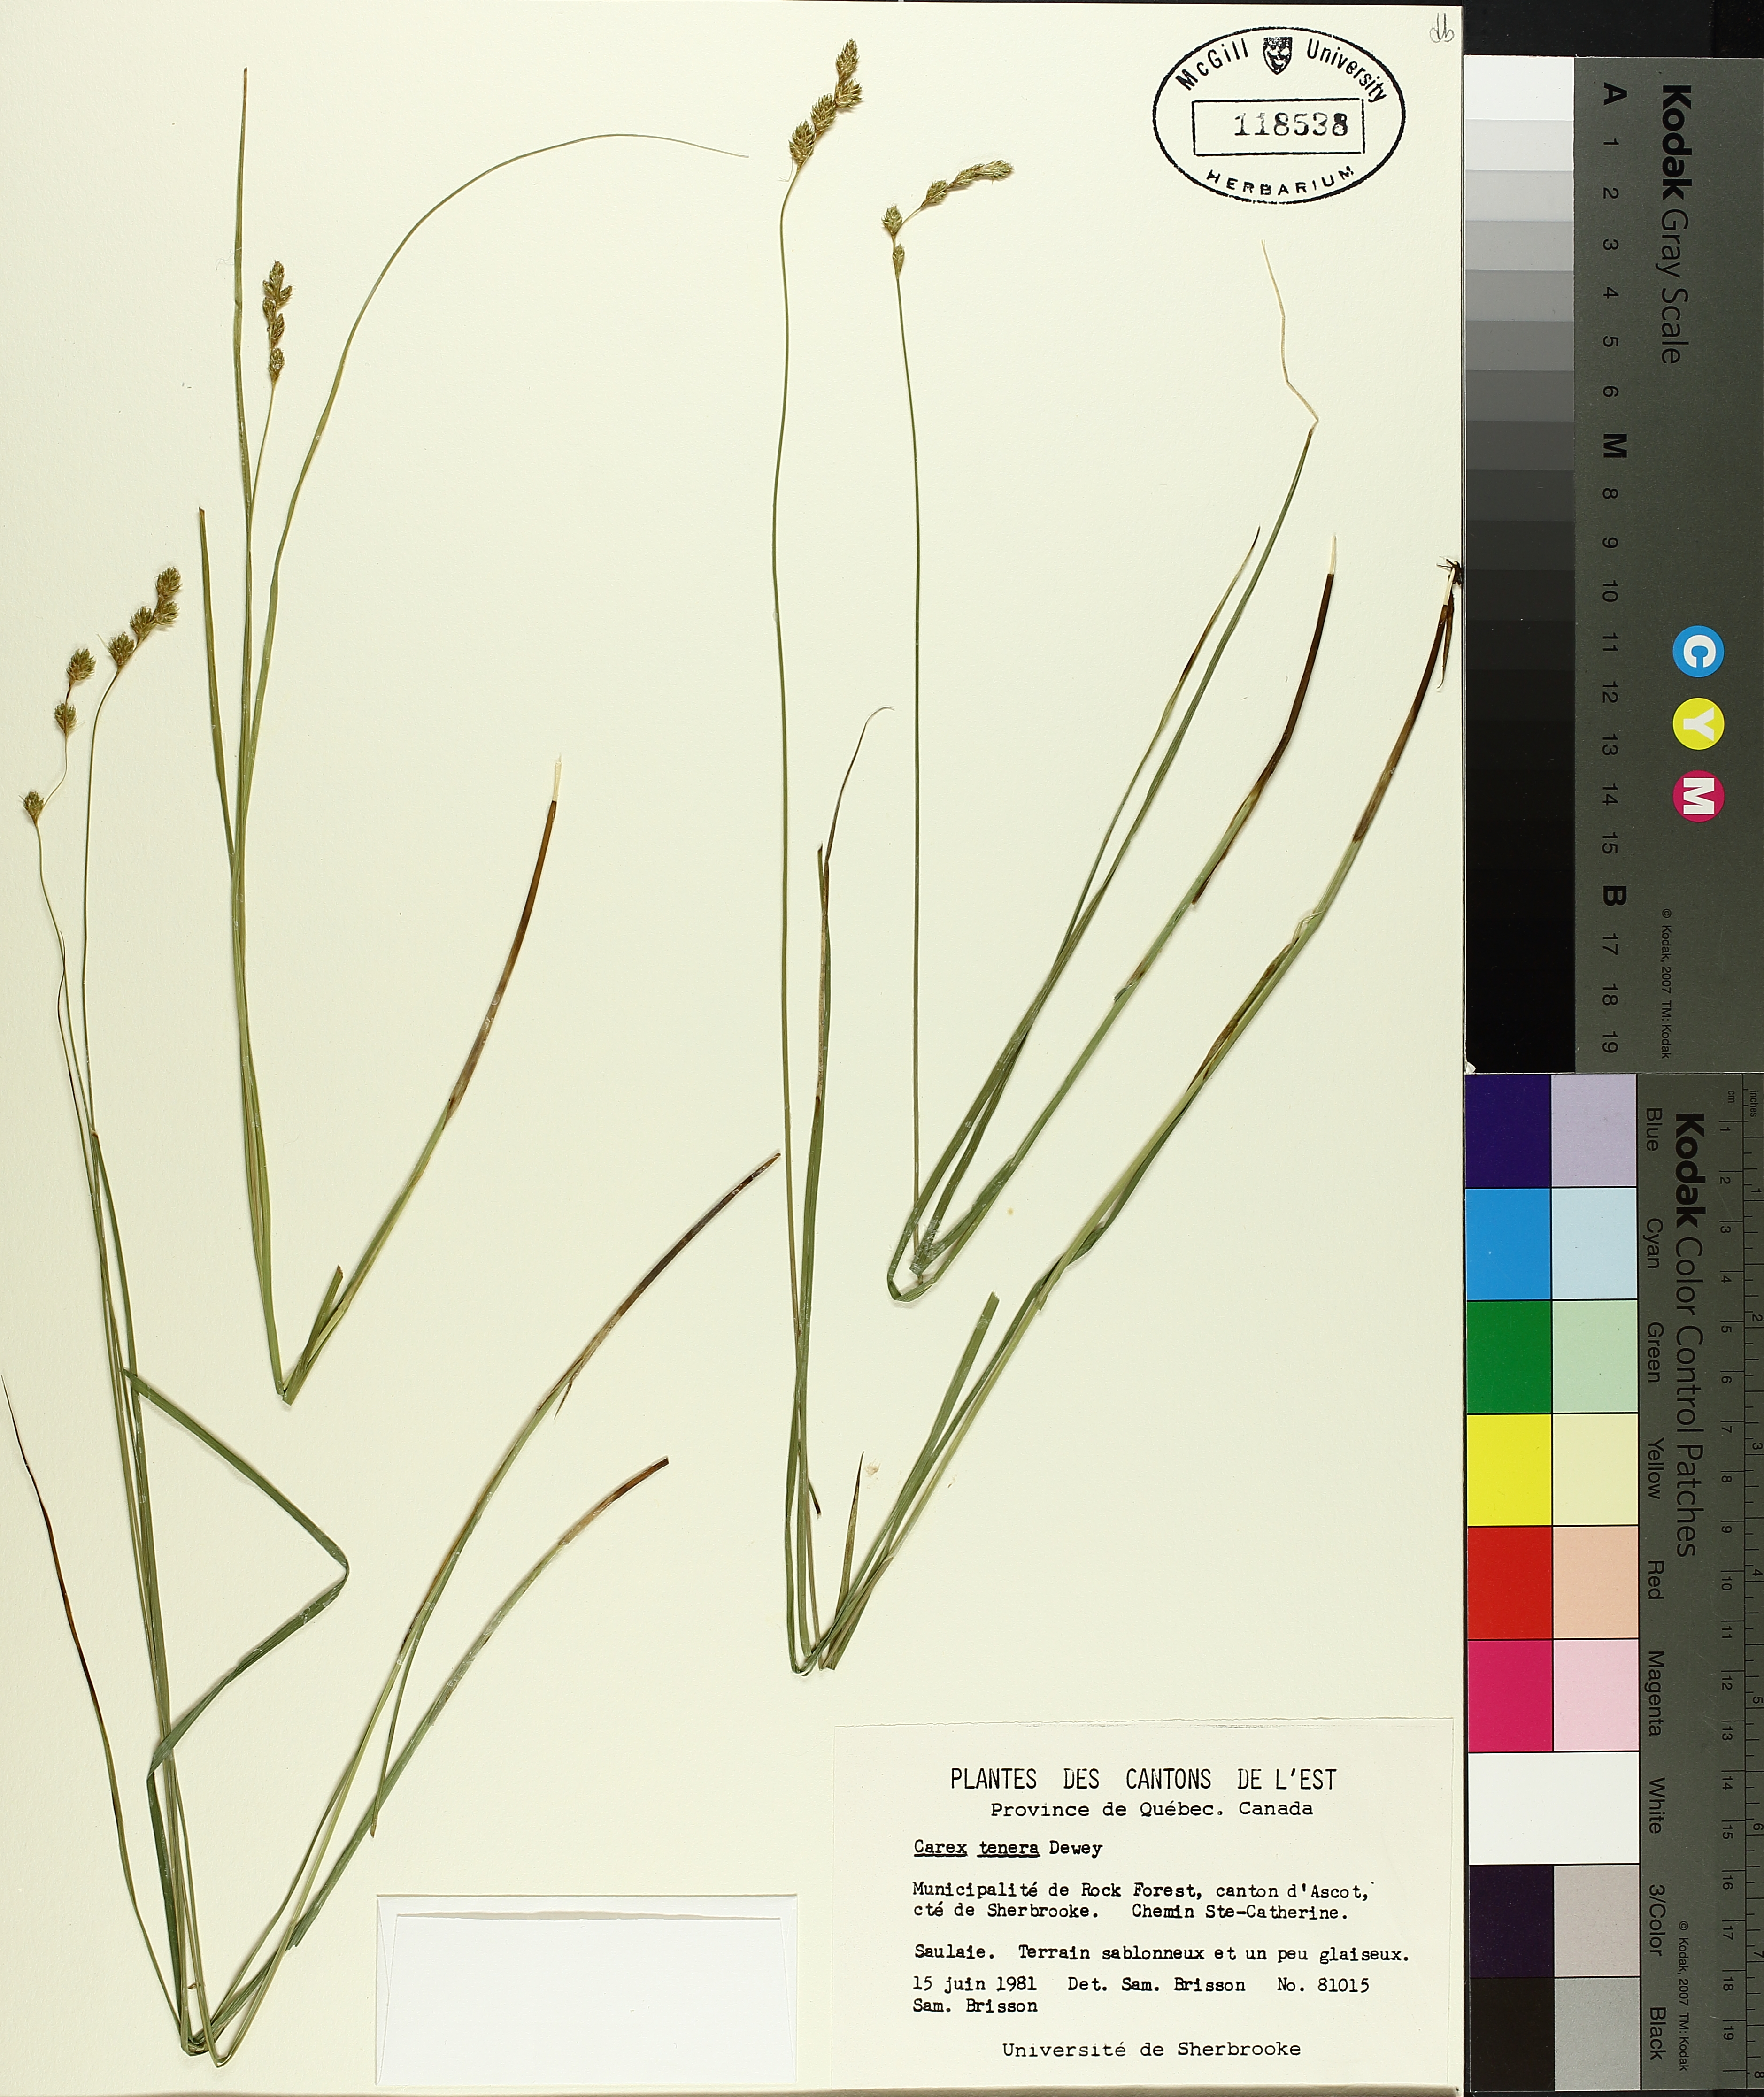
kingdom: Plantae
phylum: Tracheophyta
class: Liliopsida
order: Poales
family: Cyperaceae
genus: Carex
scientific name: Carex tenera
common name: Broad-fruited sedge
